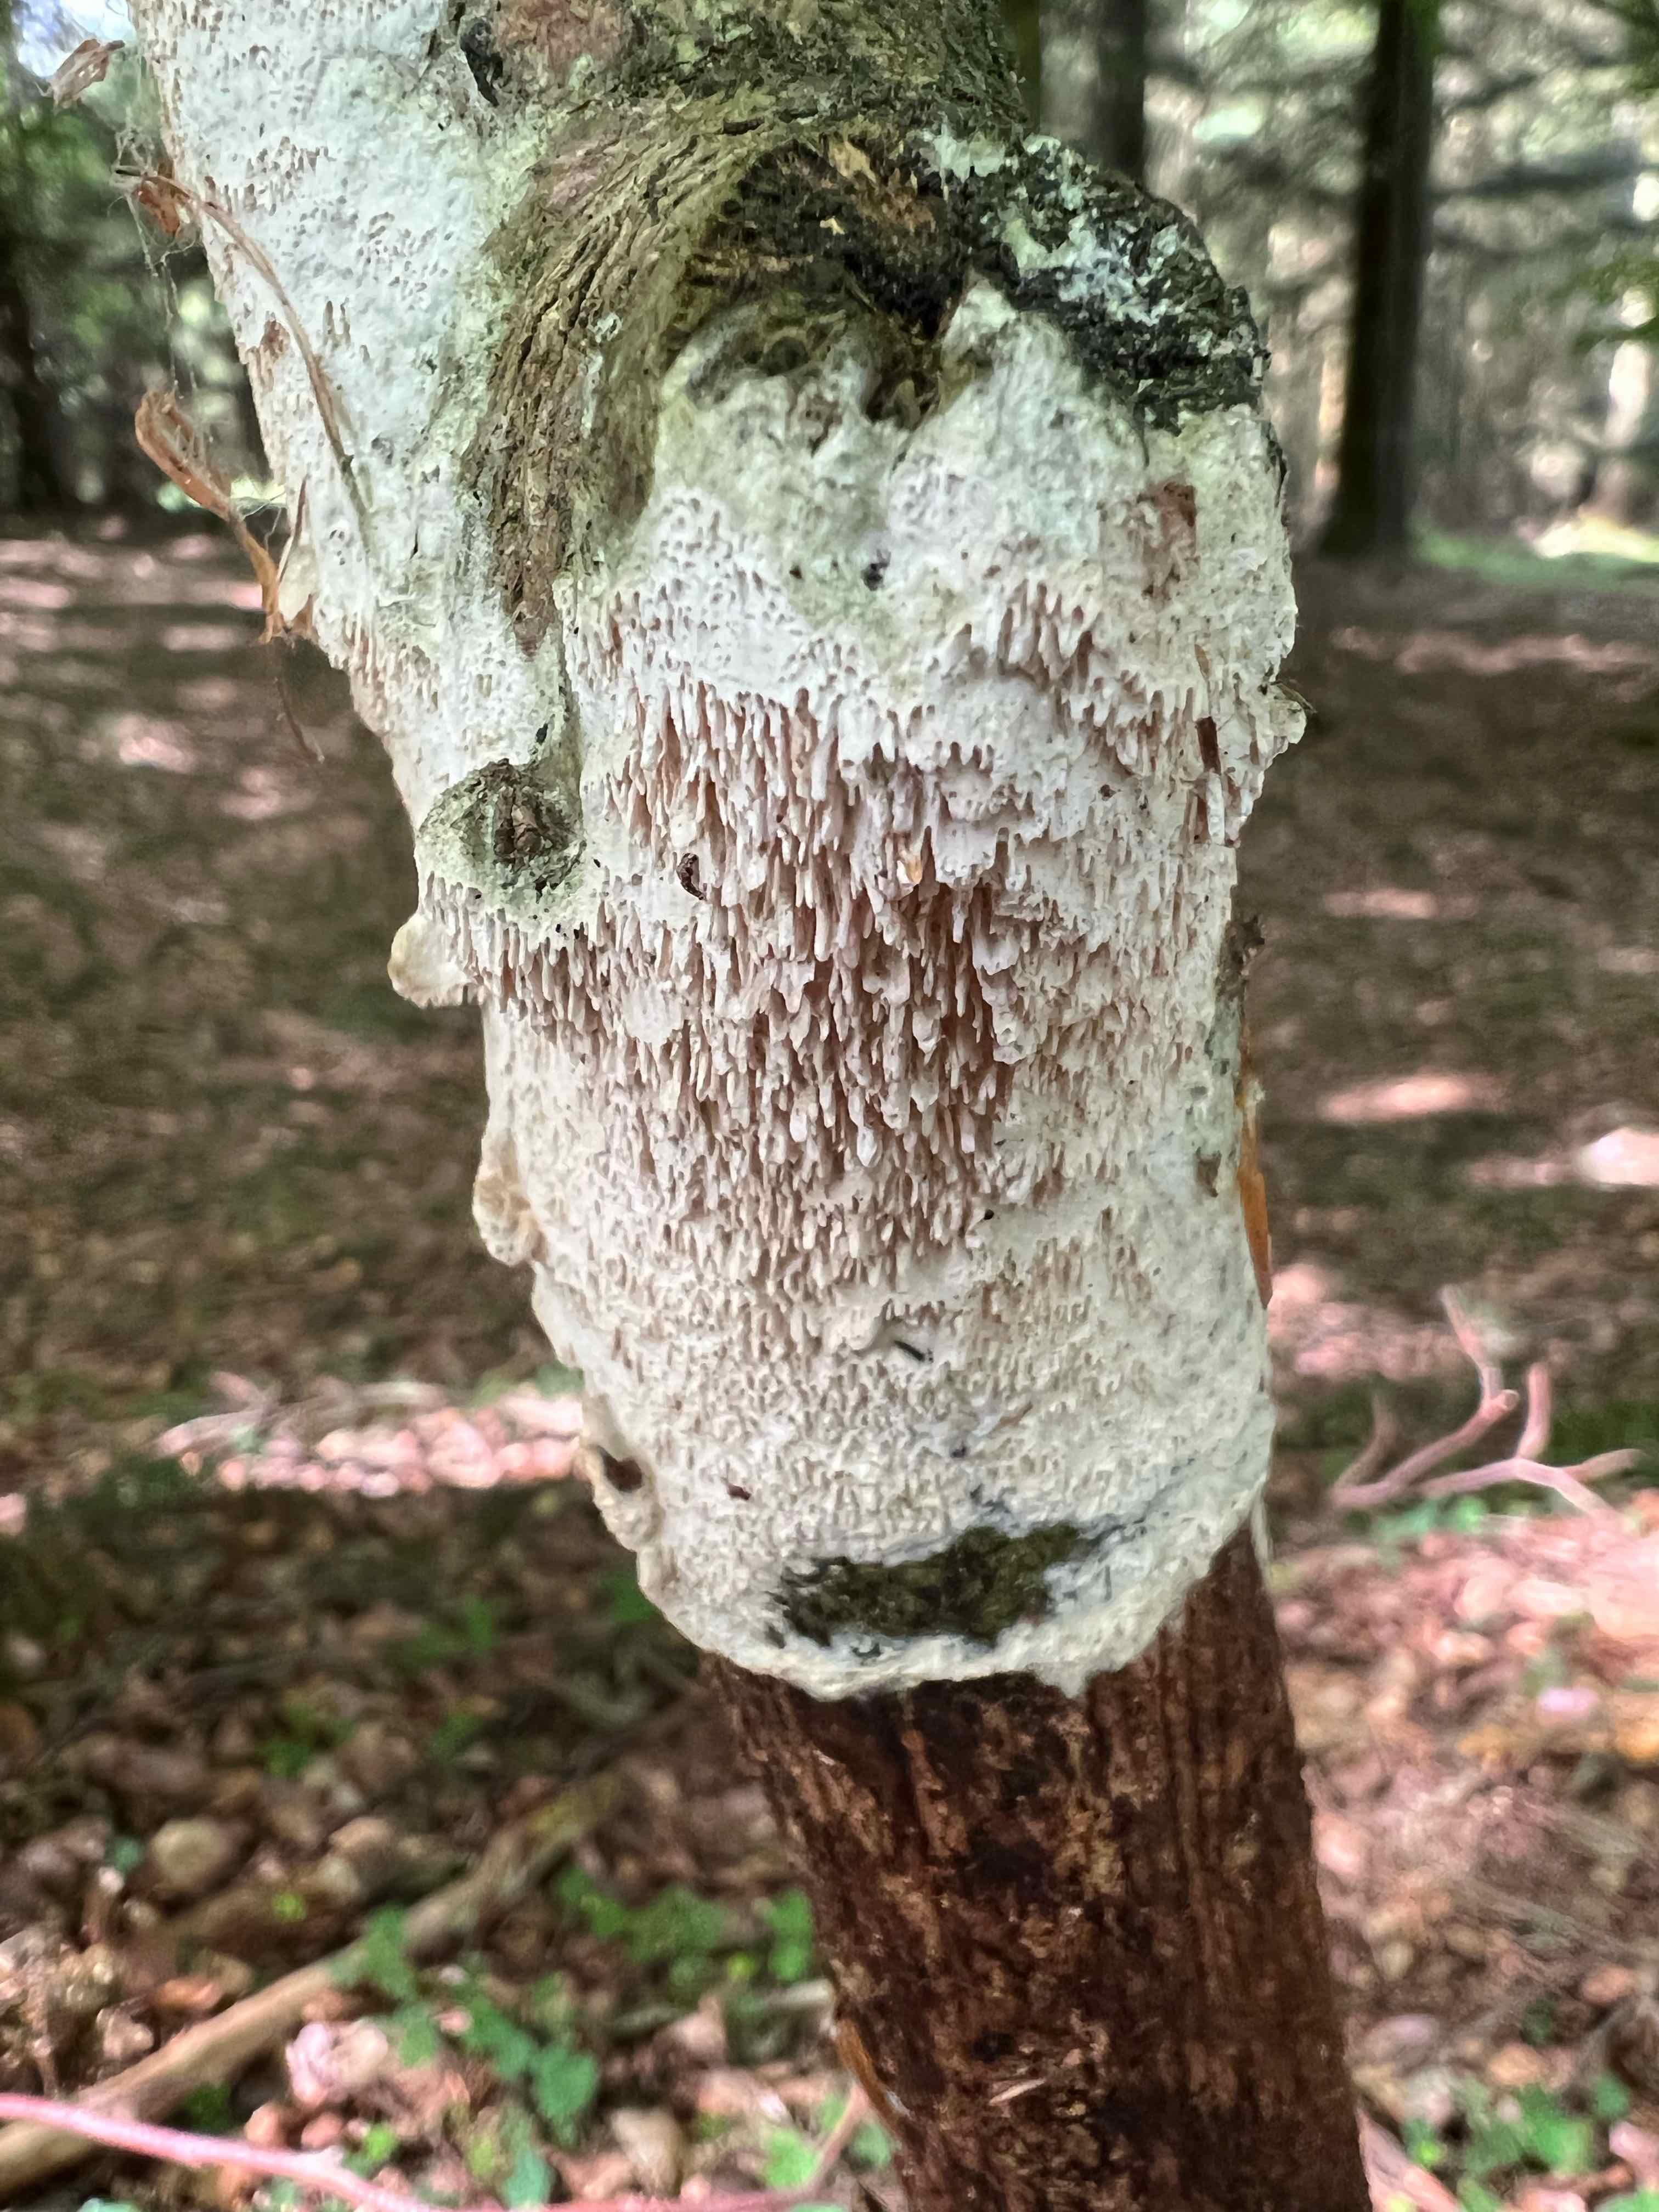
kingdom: Fungi
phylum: Basidiomycota
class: Agaricomycetes
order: Hymenochaetales
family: Schizoporaceae
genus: Schizopora
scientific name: Schizopora paradoxa
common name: hvid tandsvamp
